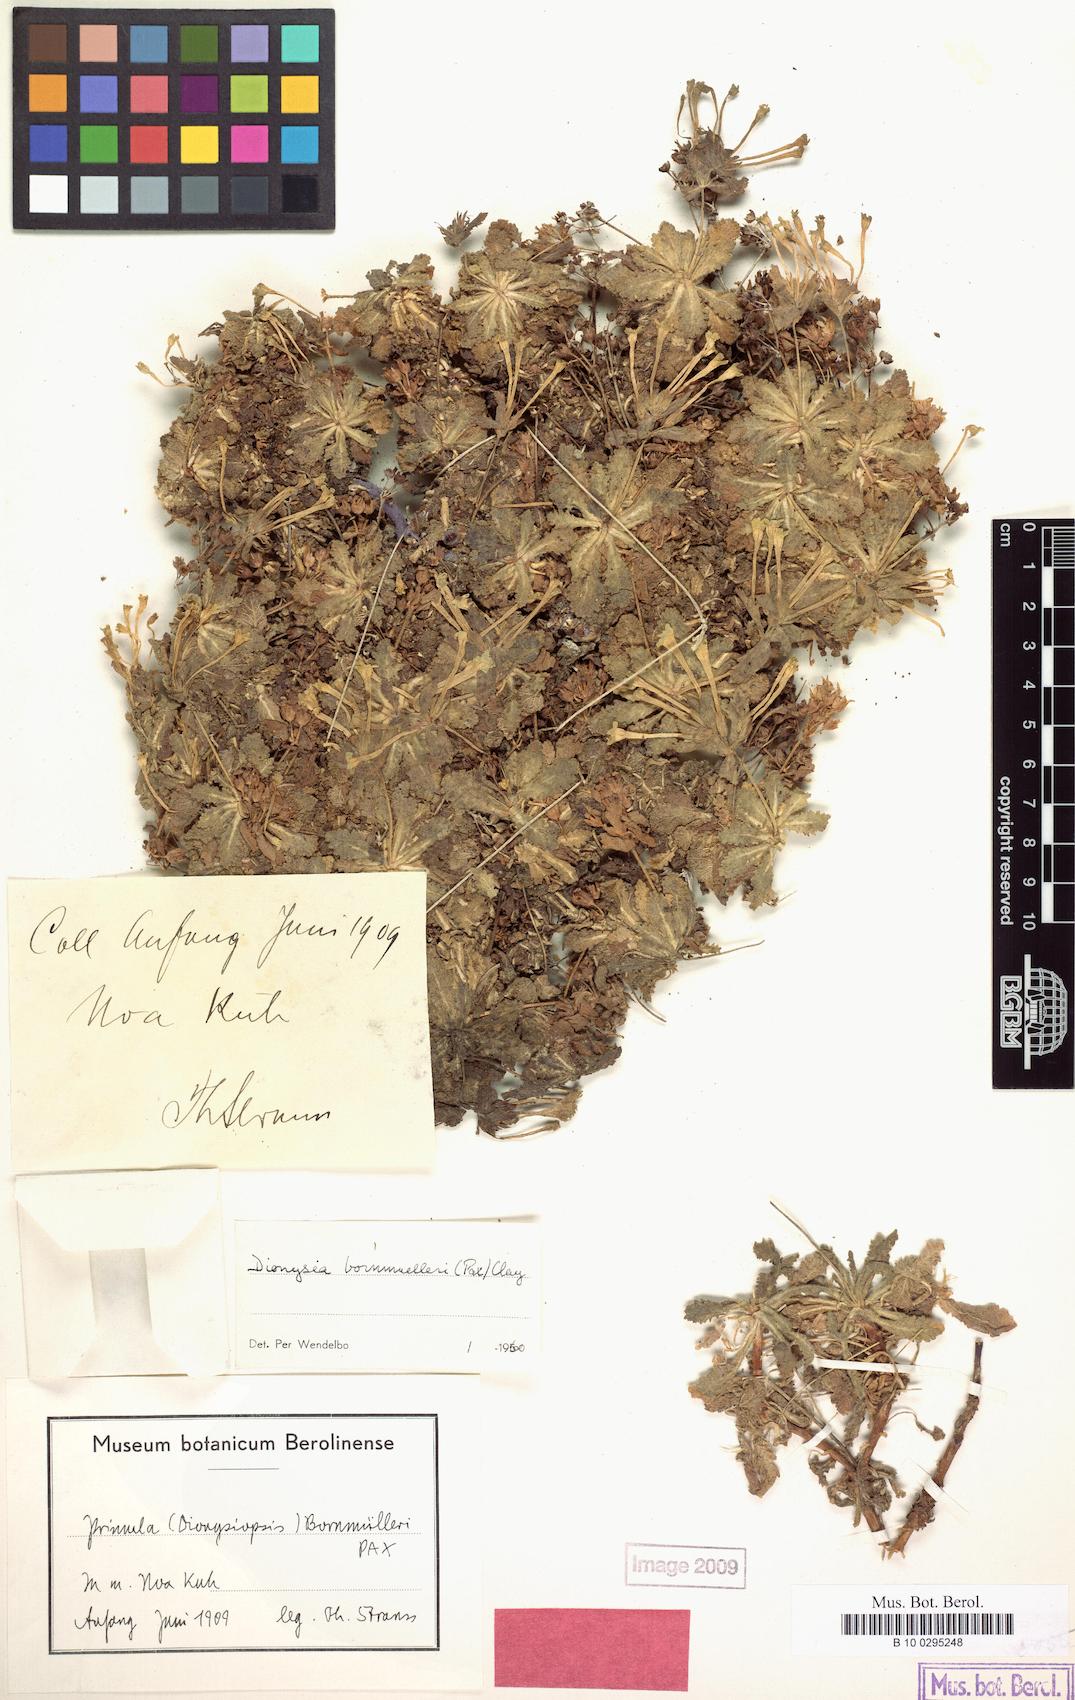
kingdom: Plantae
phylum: Tracheophyta
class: Magnoliopsida
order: Ericales
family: Primulaceae
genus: Dionysia
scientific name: Dionysia bornmuelleri
